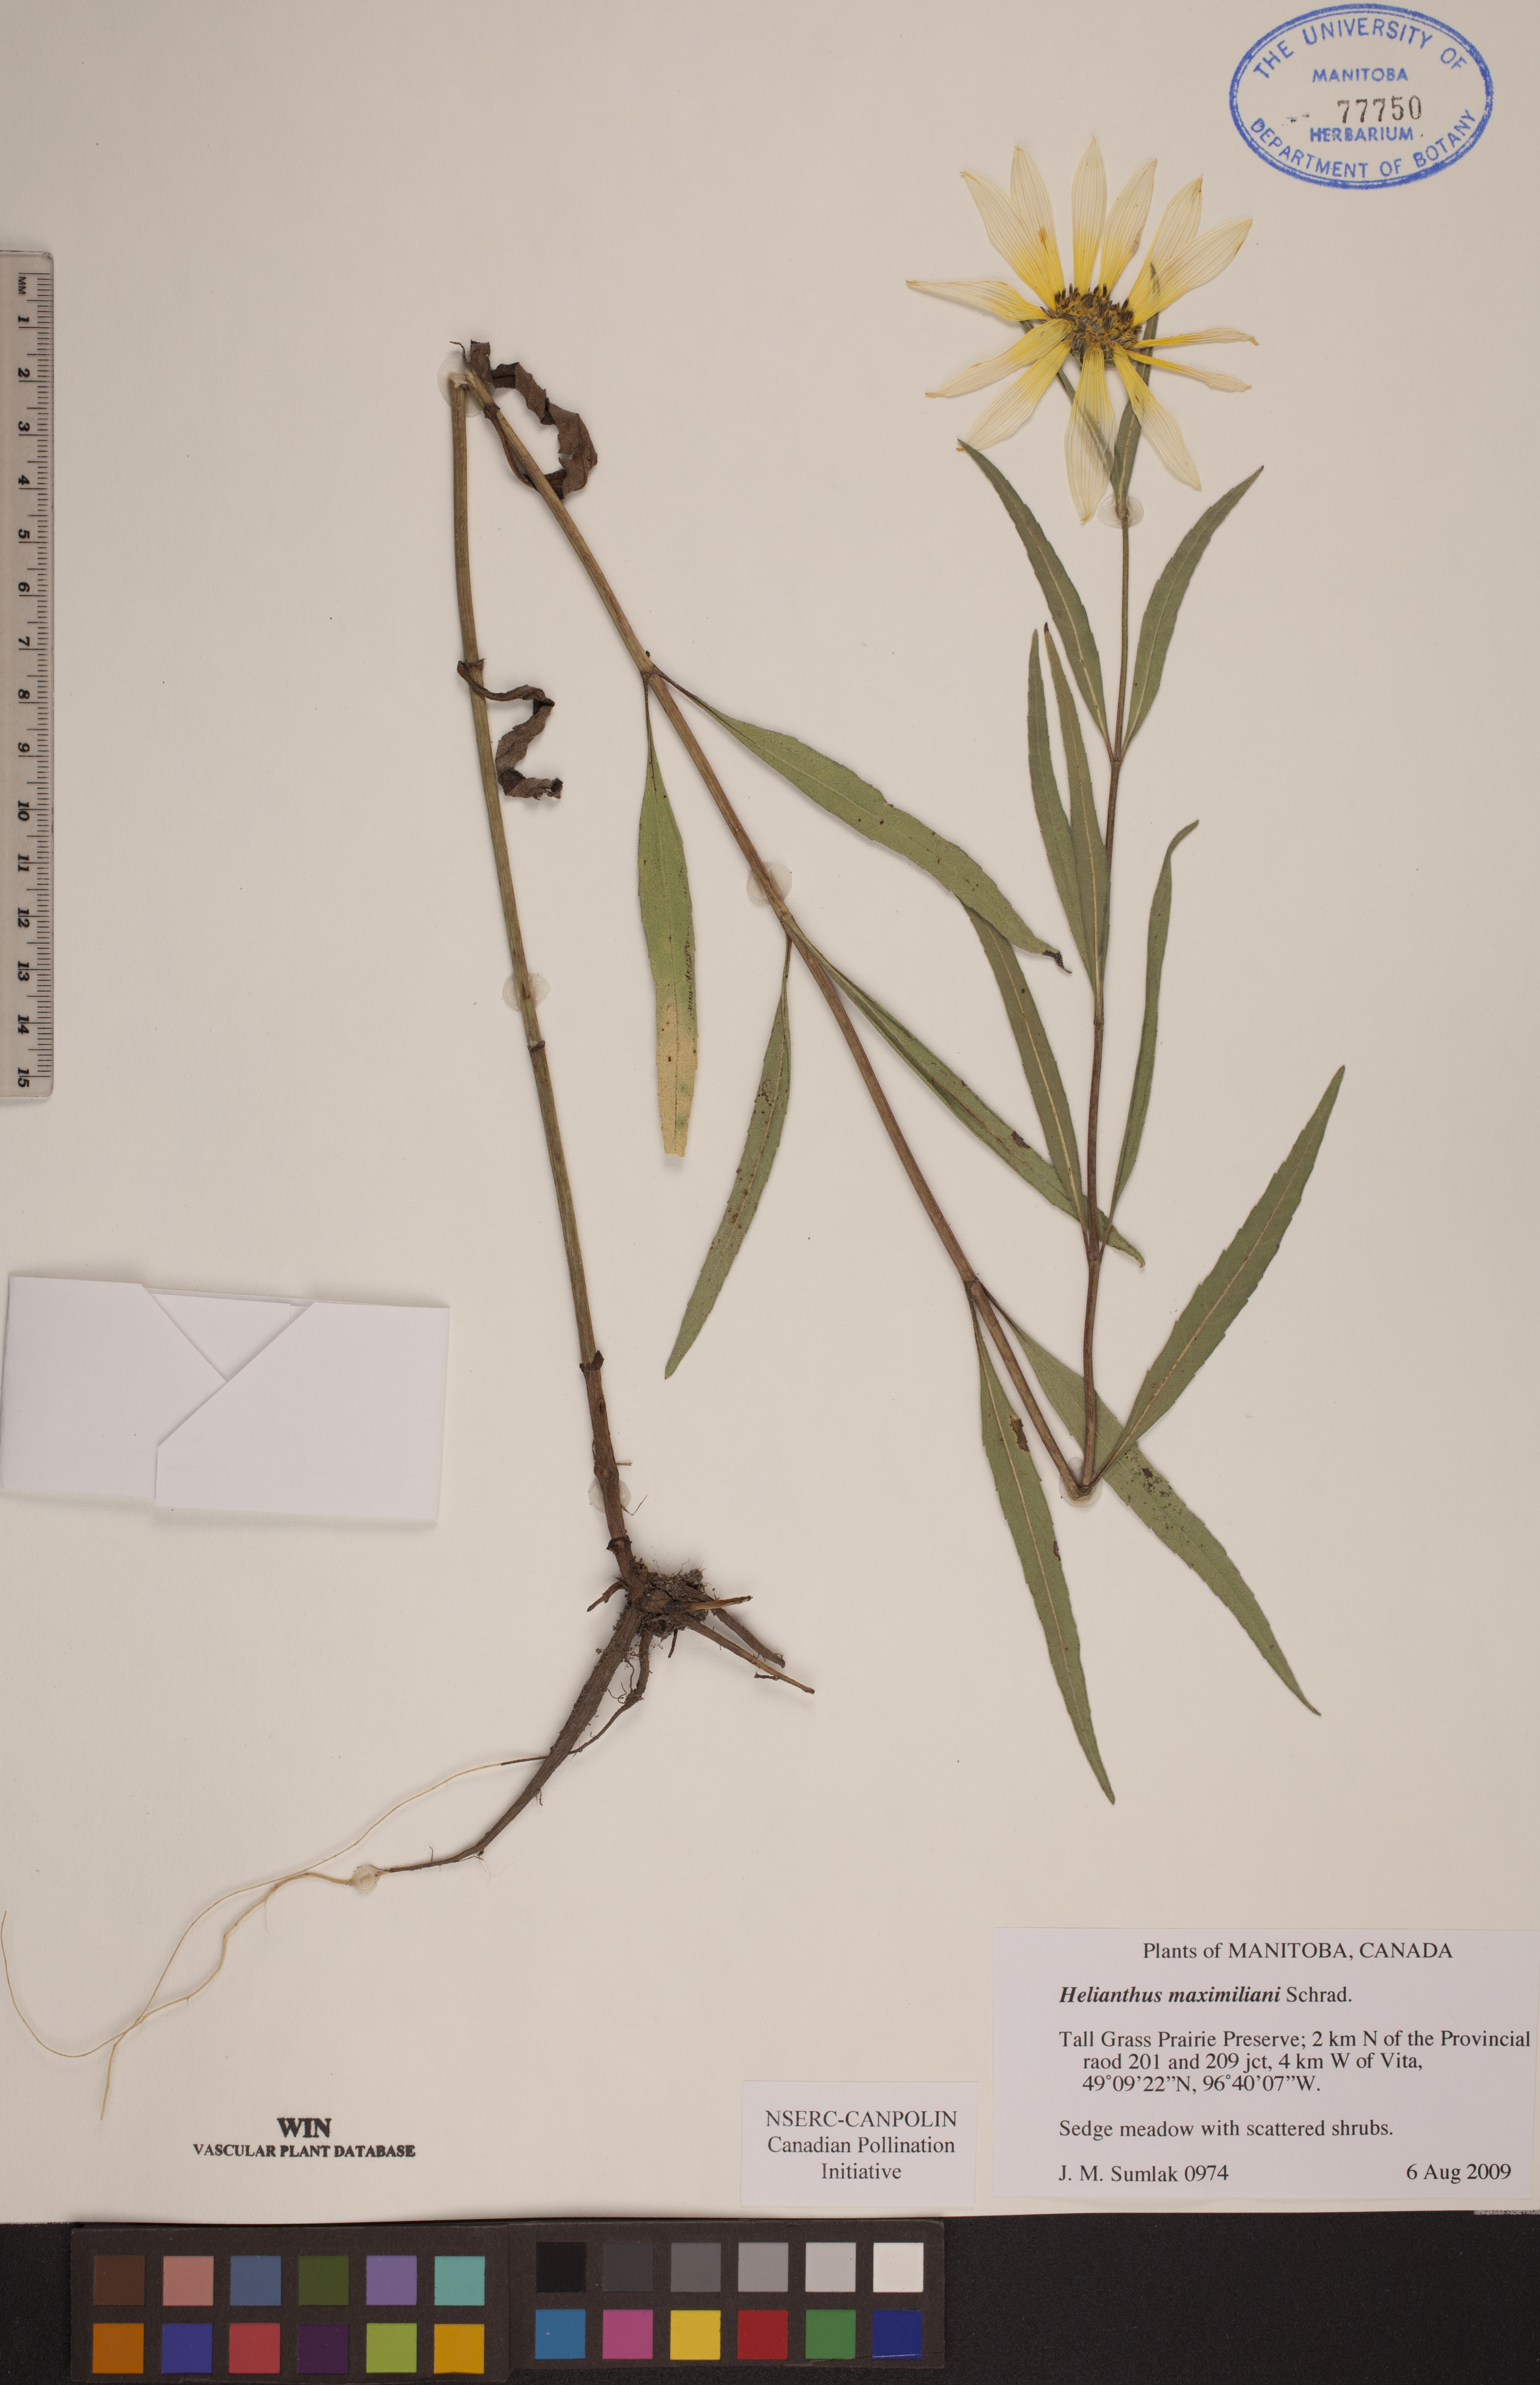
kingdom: Plantae
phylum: Tracheophyta
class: Magnoliopsida
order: Asterales
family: Asteraceae
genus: Helianthus
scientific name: Helianthus maximiliani
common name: Maximilian's sunflower
